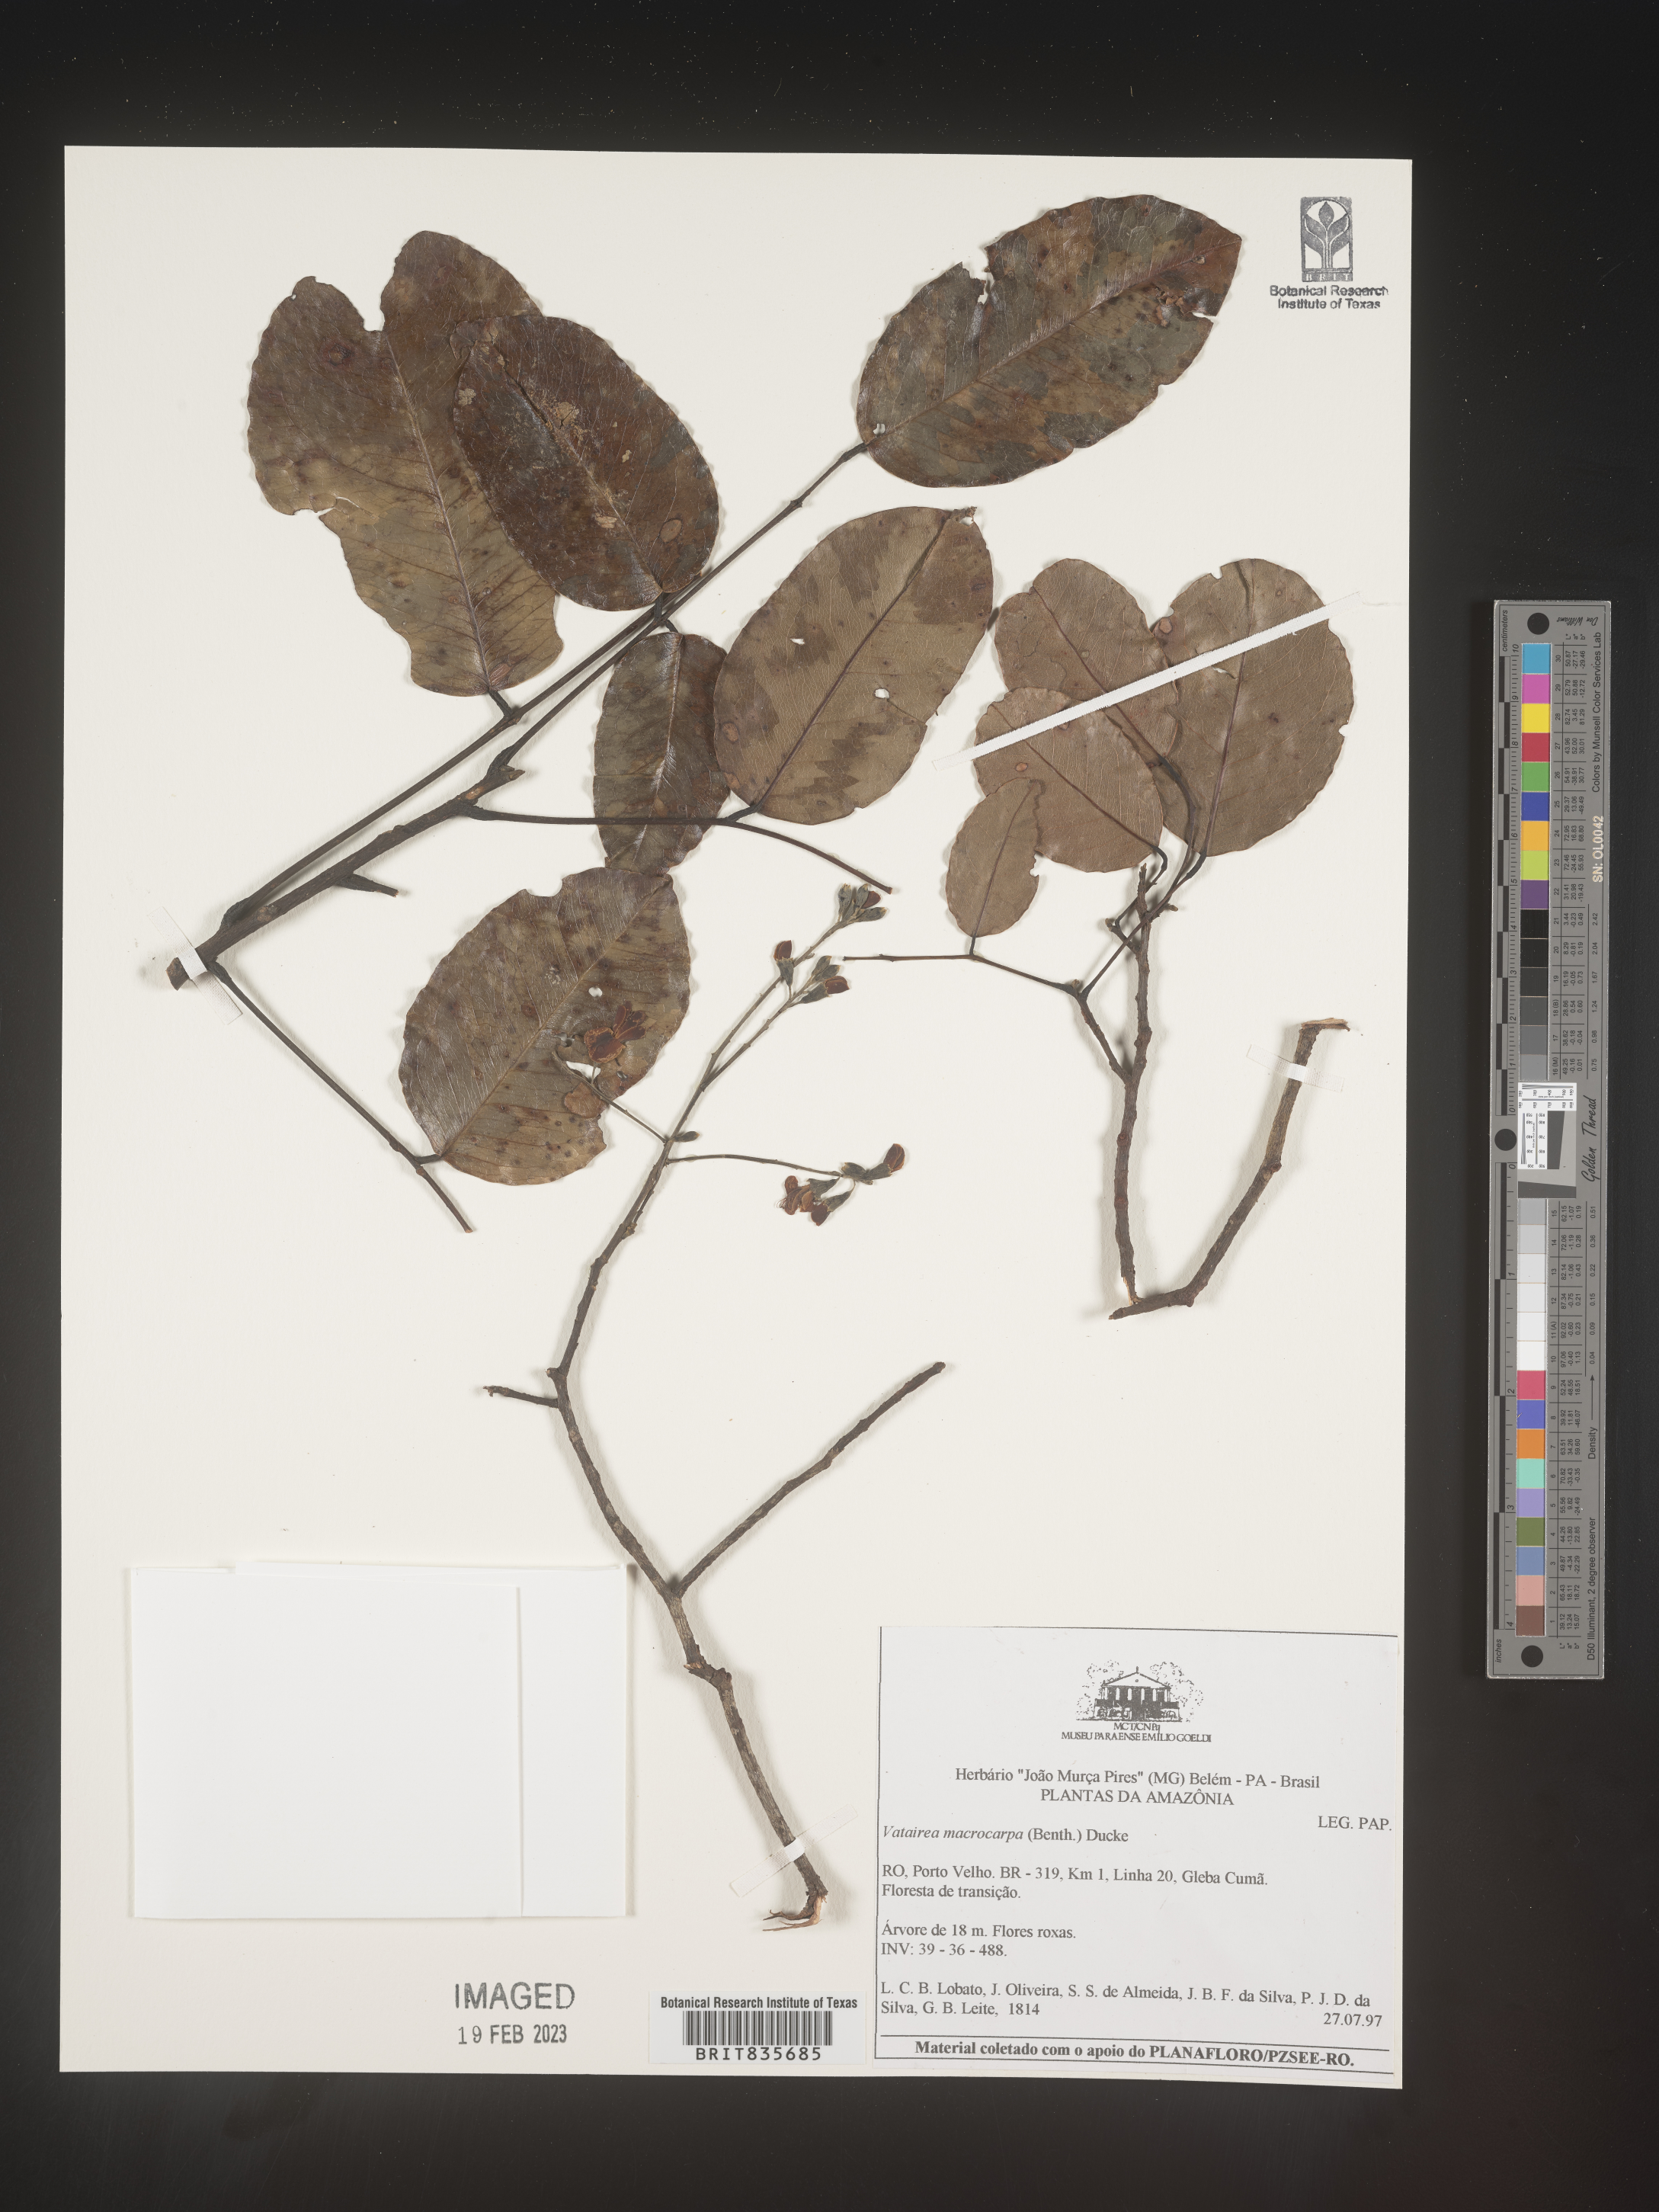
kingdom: Plantae
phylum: Tracheophyta
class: Magnoliopsida
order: Fabales
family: Fabaceae
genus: Vatairea
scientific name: Vatairea
